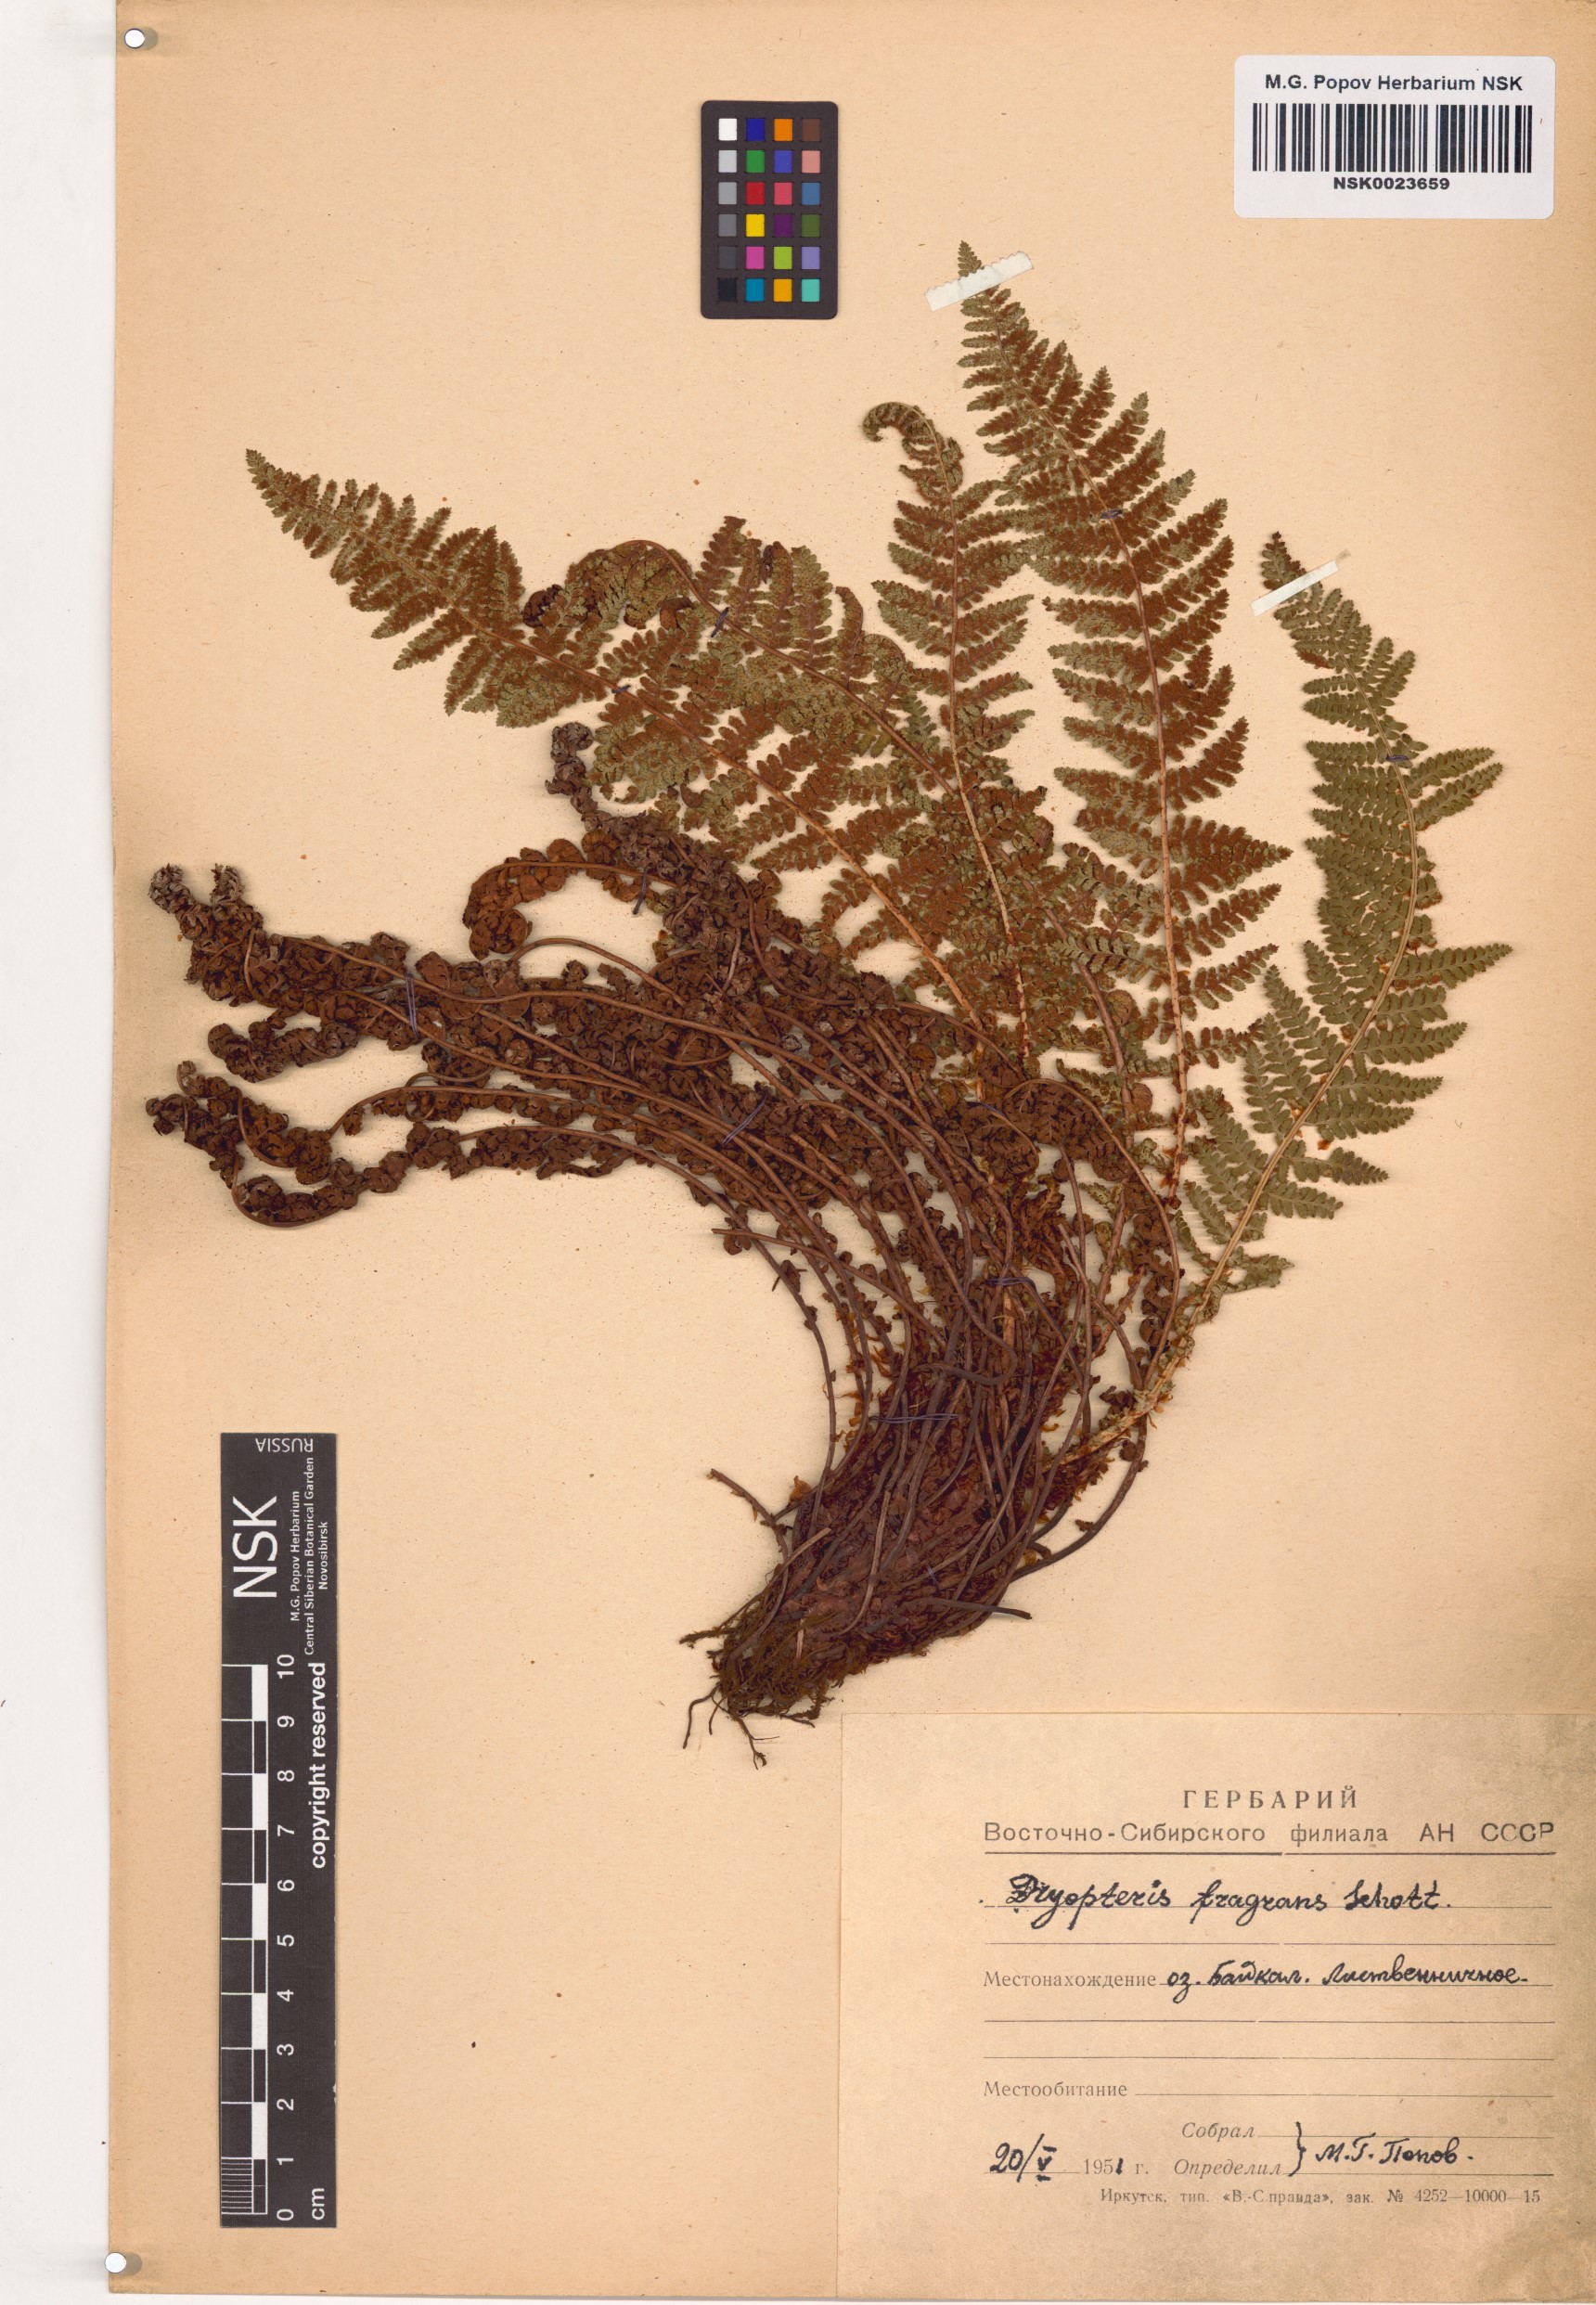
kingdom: Plantae
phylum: Tracheophyta
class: Polypodiopsida
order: Polypodiales
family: Dryopteridaceae
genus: Dryopteris
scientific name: Dryopteris fragrans
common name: Fragrant wood fern
